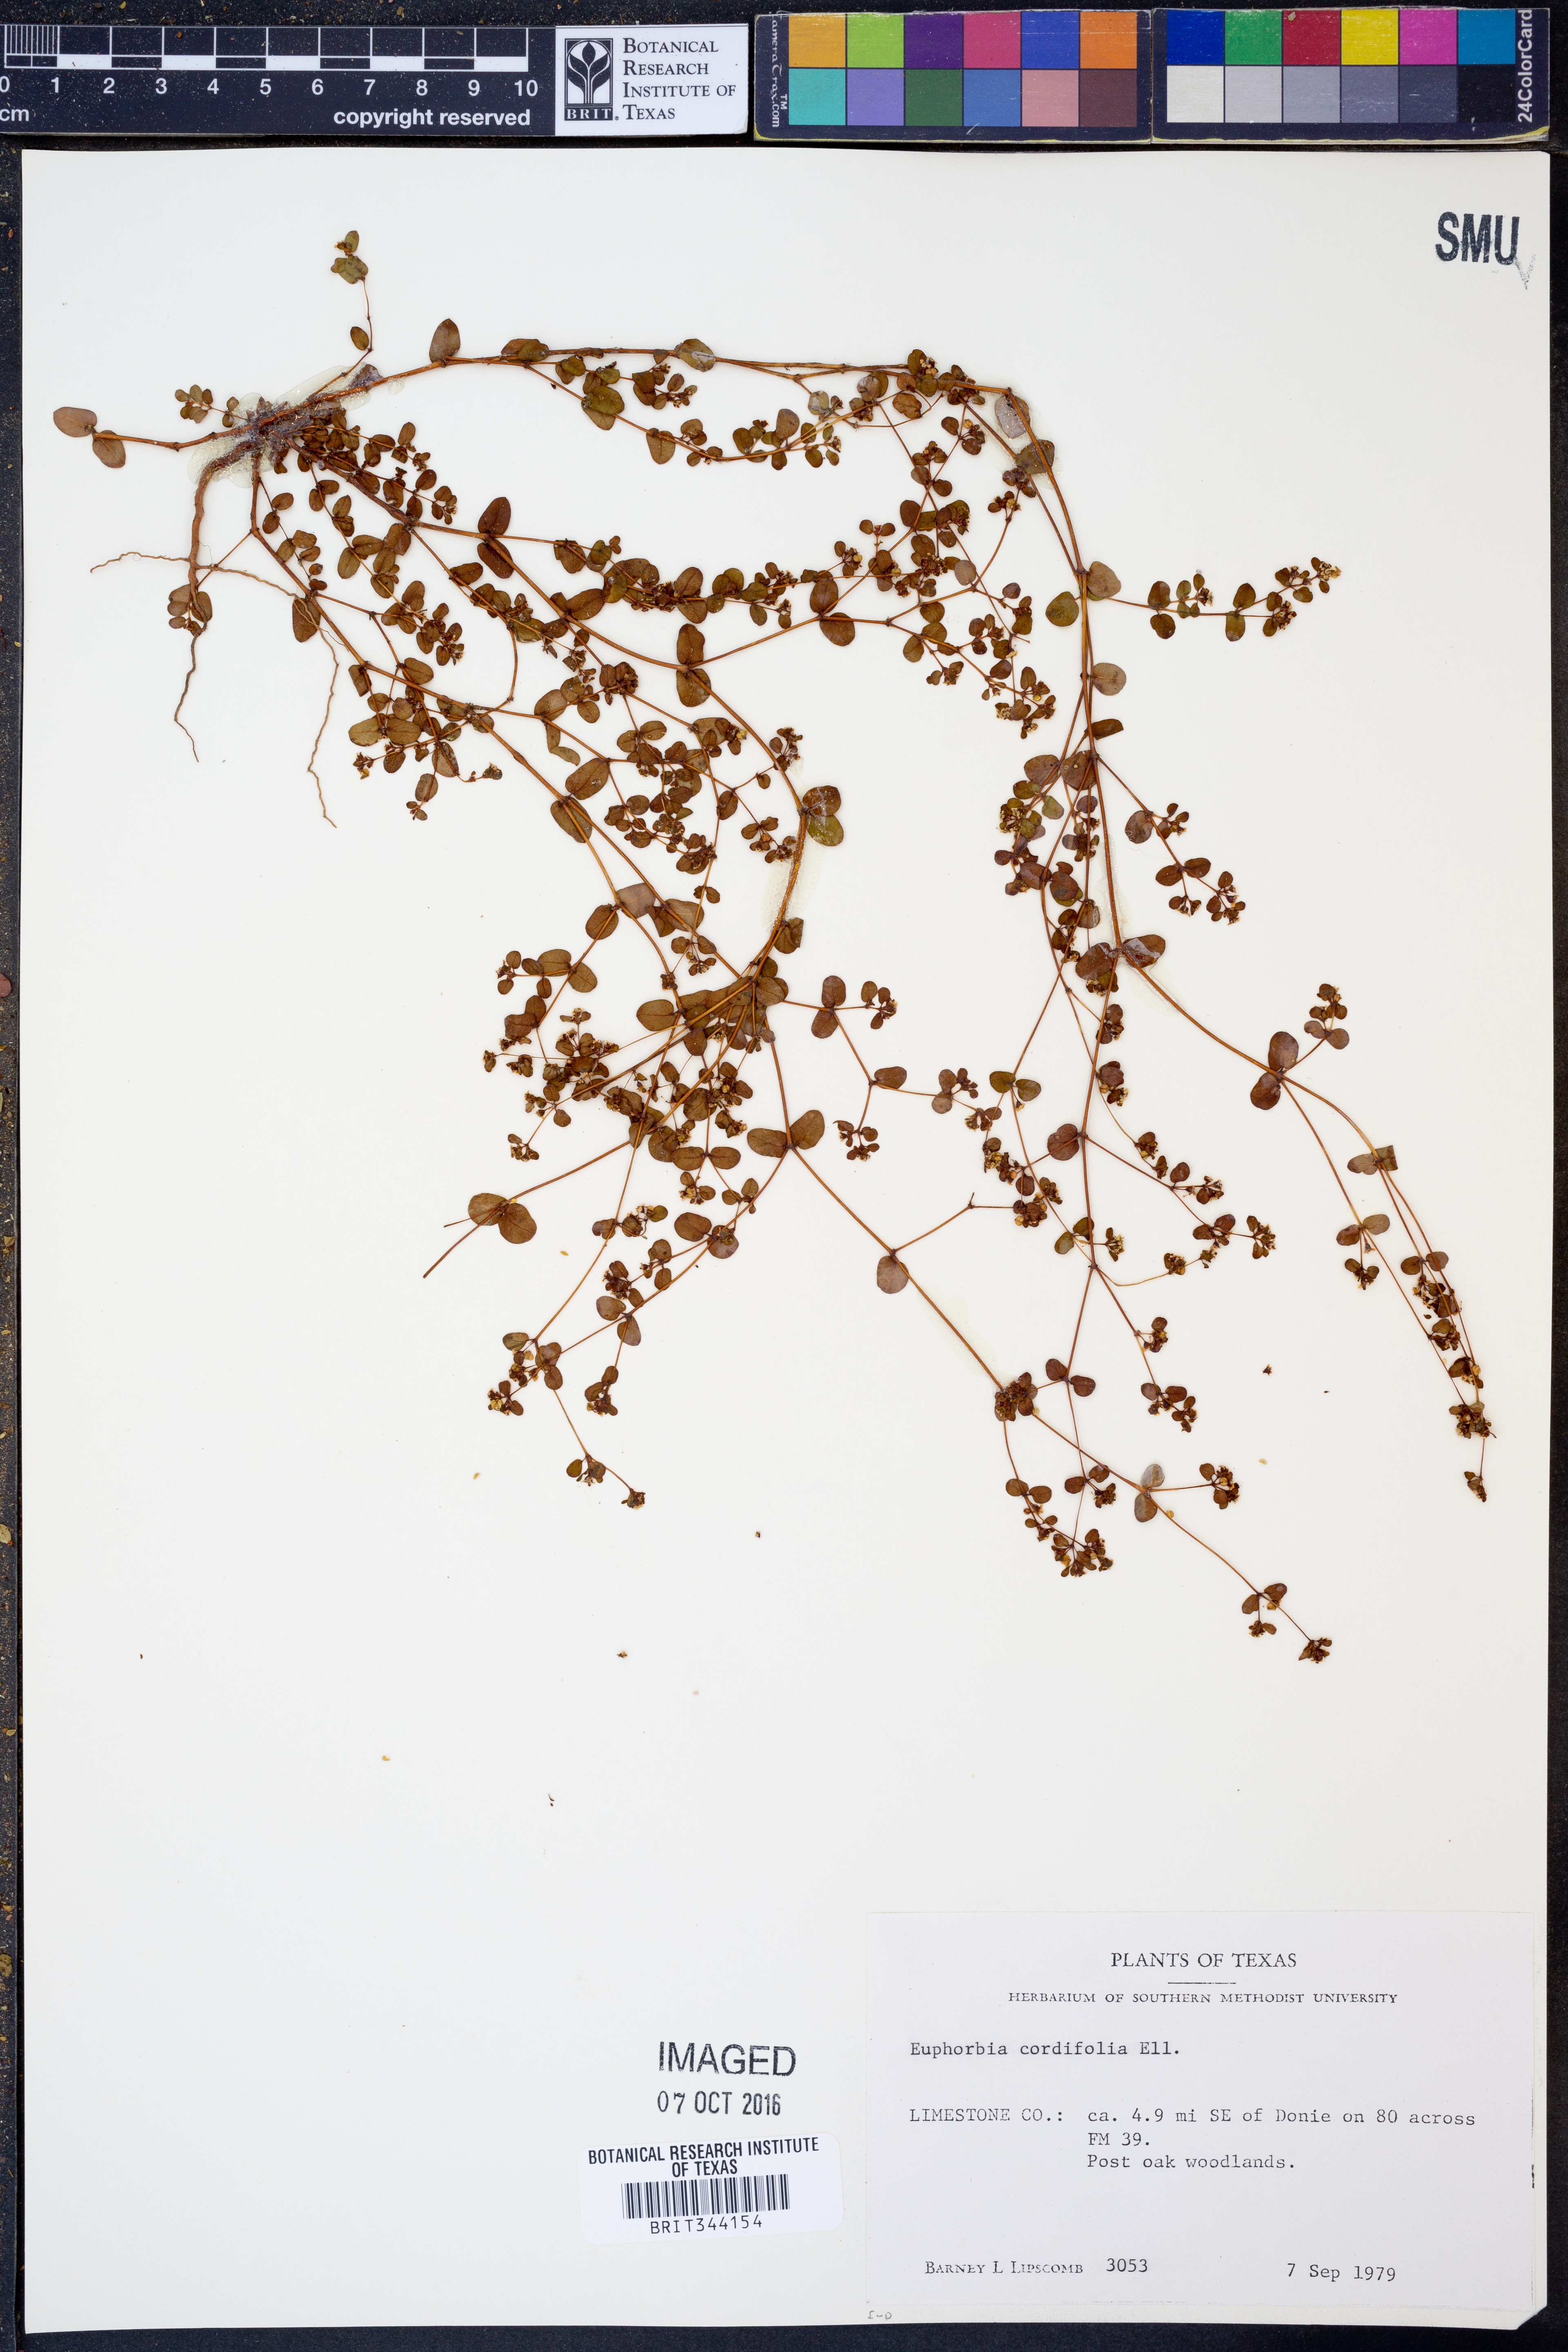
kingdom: Plantae
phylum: Tracheophyta
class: Magnoliopsida
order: Malpighiales
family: Euphorbiaceae
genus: Euphorbia
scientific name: Euphorbia cordifolia
